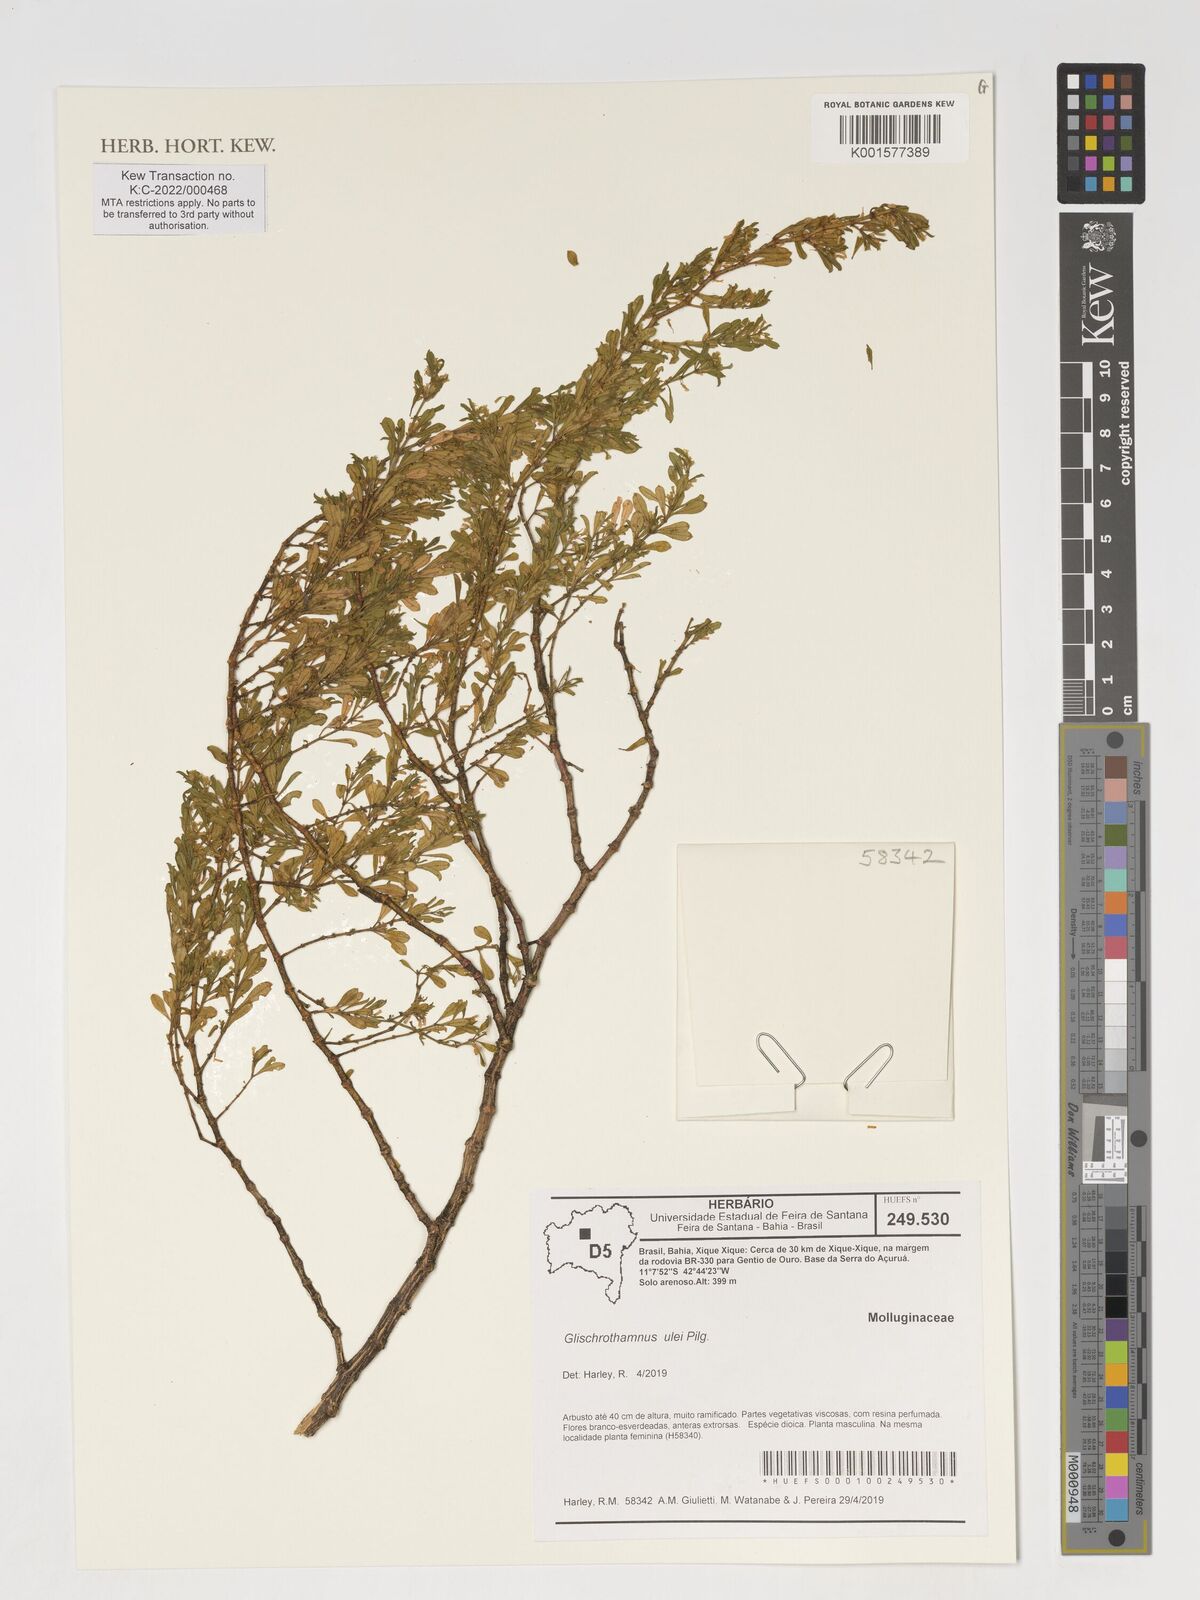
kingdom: Plantae
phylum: Tracheophyta
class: Magnoliopsida
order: Caryophyllales
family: Molluginaceae
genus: Mollugo
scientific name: Mollugo ulei
